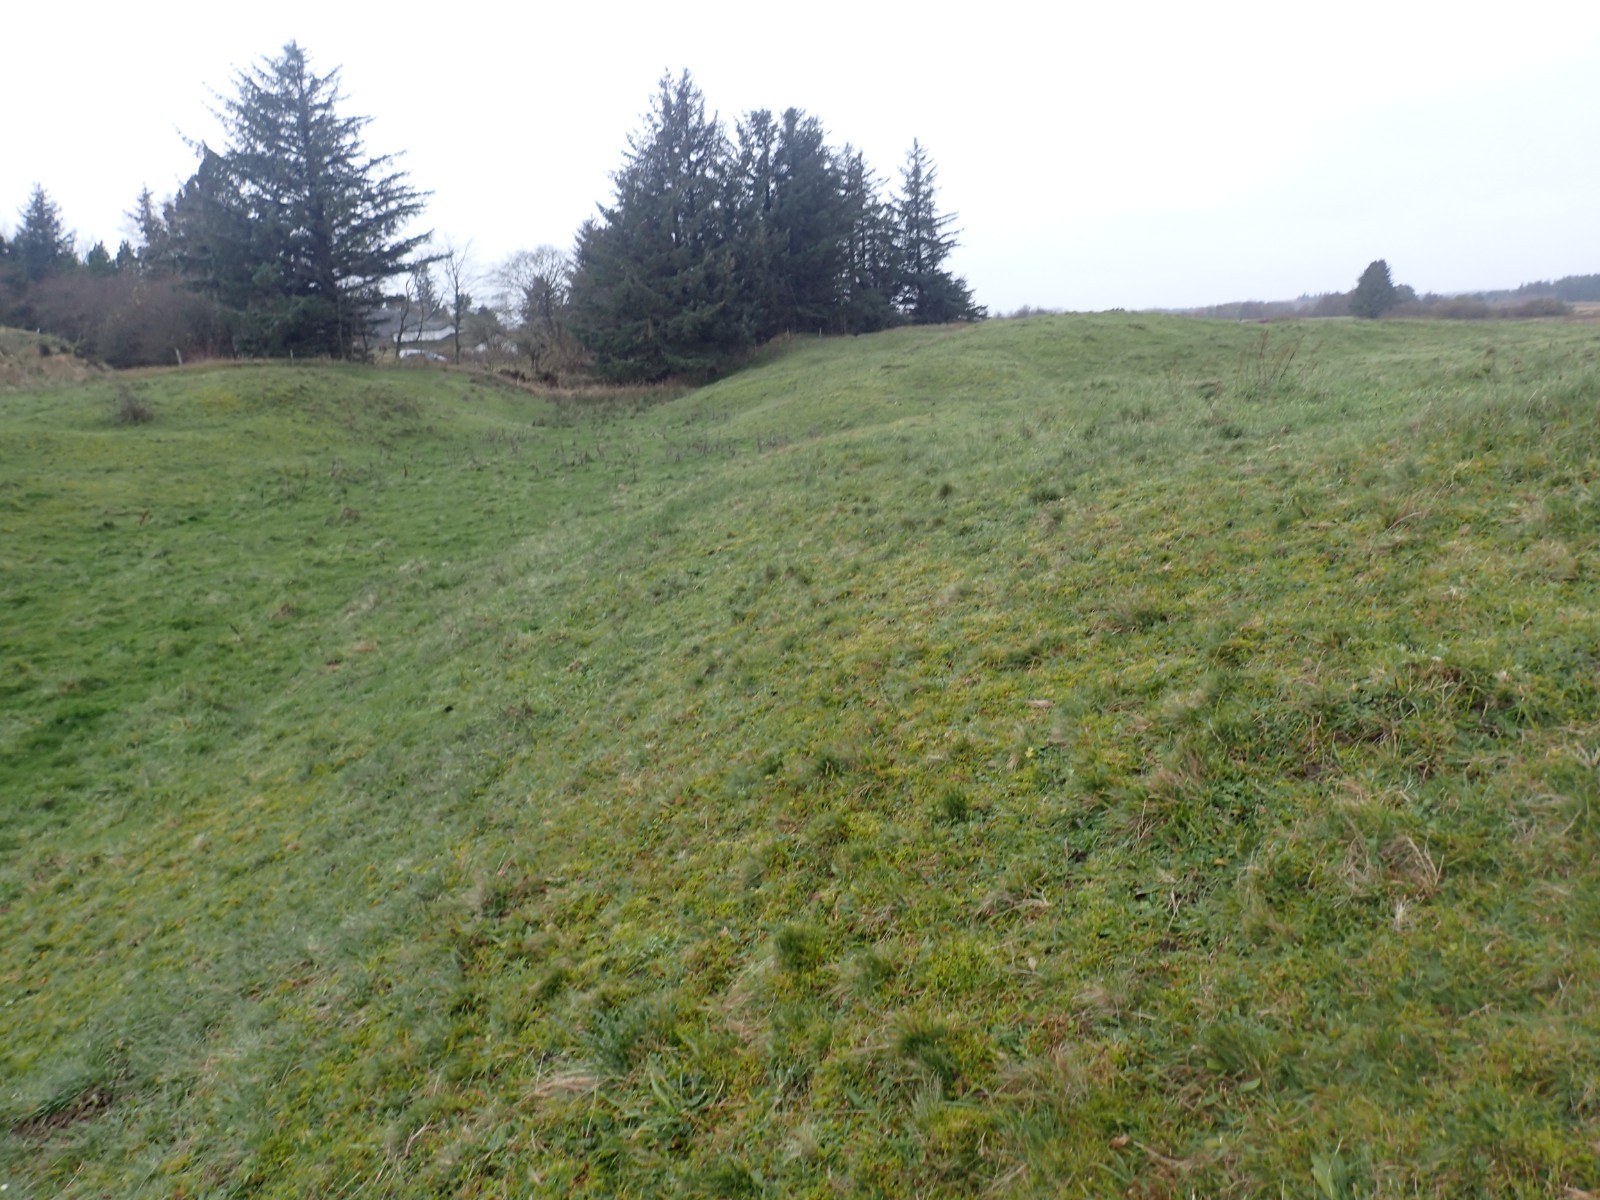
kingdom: Fungi
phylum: Basidiomycota
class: Agaricomycetes
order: Agaricales
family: Hygrophoraceae
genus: Hygrocybe
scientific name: Hygrocybe punicea
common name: skarlagen-vokshat
